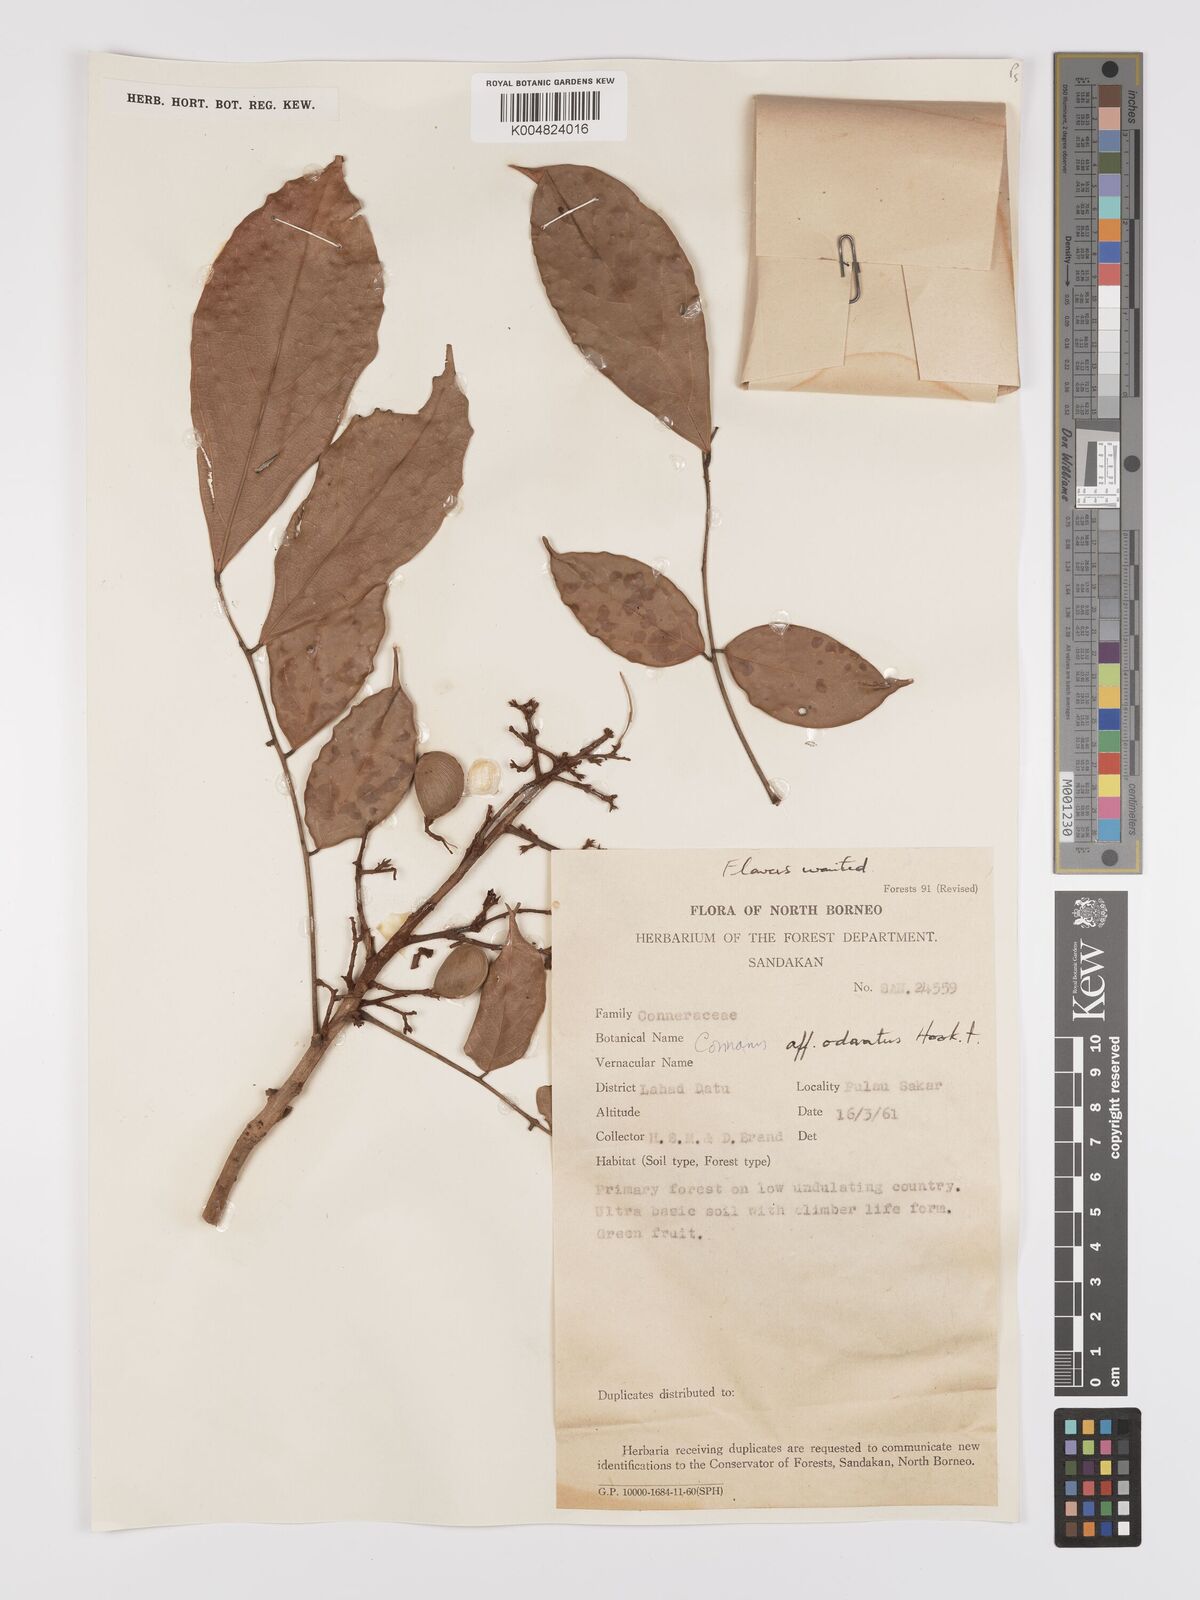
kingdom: Plantae
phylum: Tracheophyta
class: Magnoliopsida
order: Oxalidales
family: Connaraceae
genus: Connarus
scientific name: Connarus odoratus
